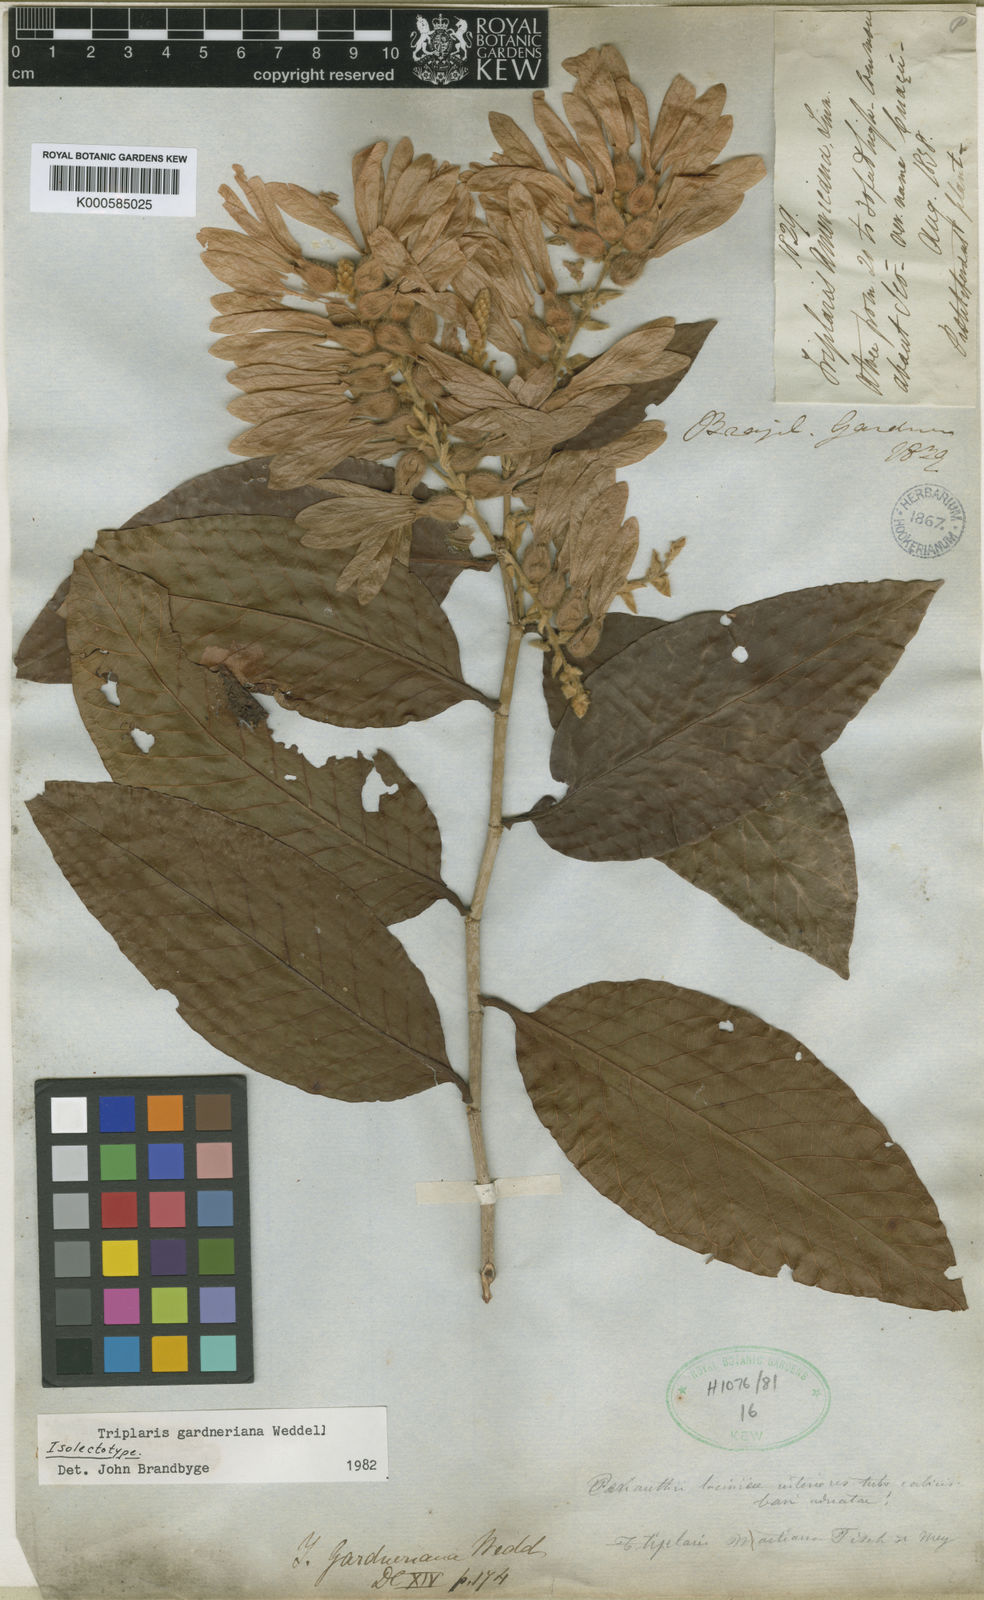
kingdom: Plantae
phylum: Tracheophyta
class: Magnoliopsida
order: Caryophyllales
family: Polygonaceae
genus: Triplaris
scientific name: Triplaris gardneriana
